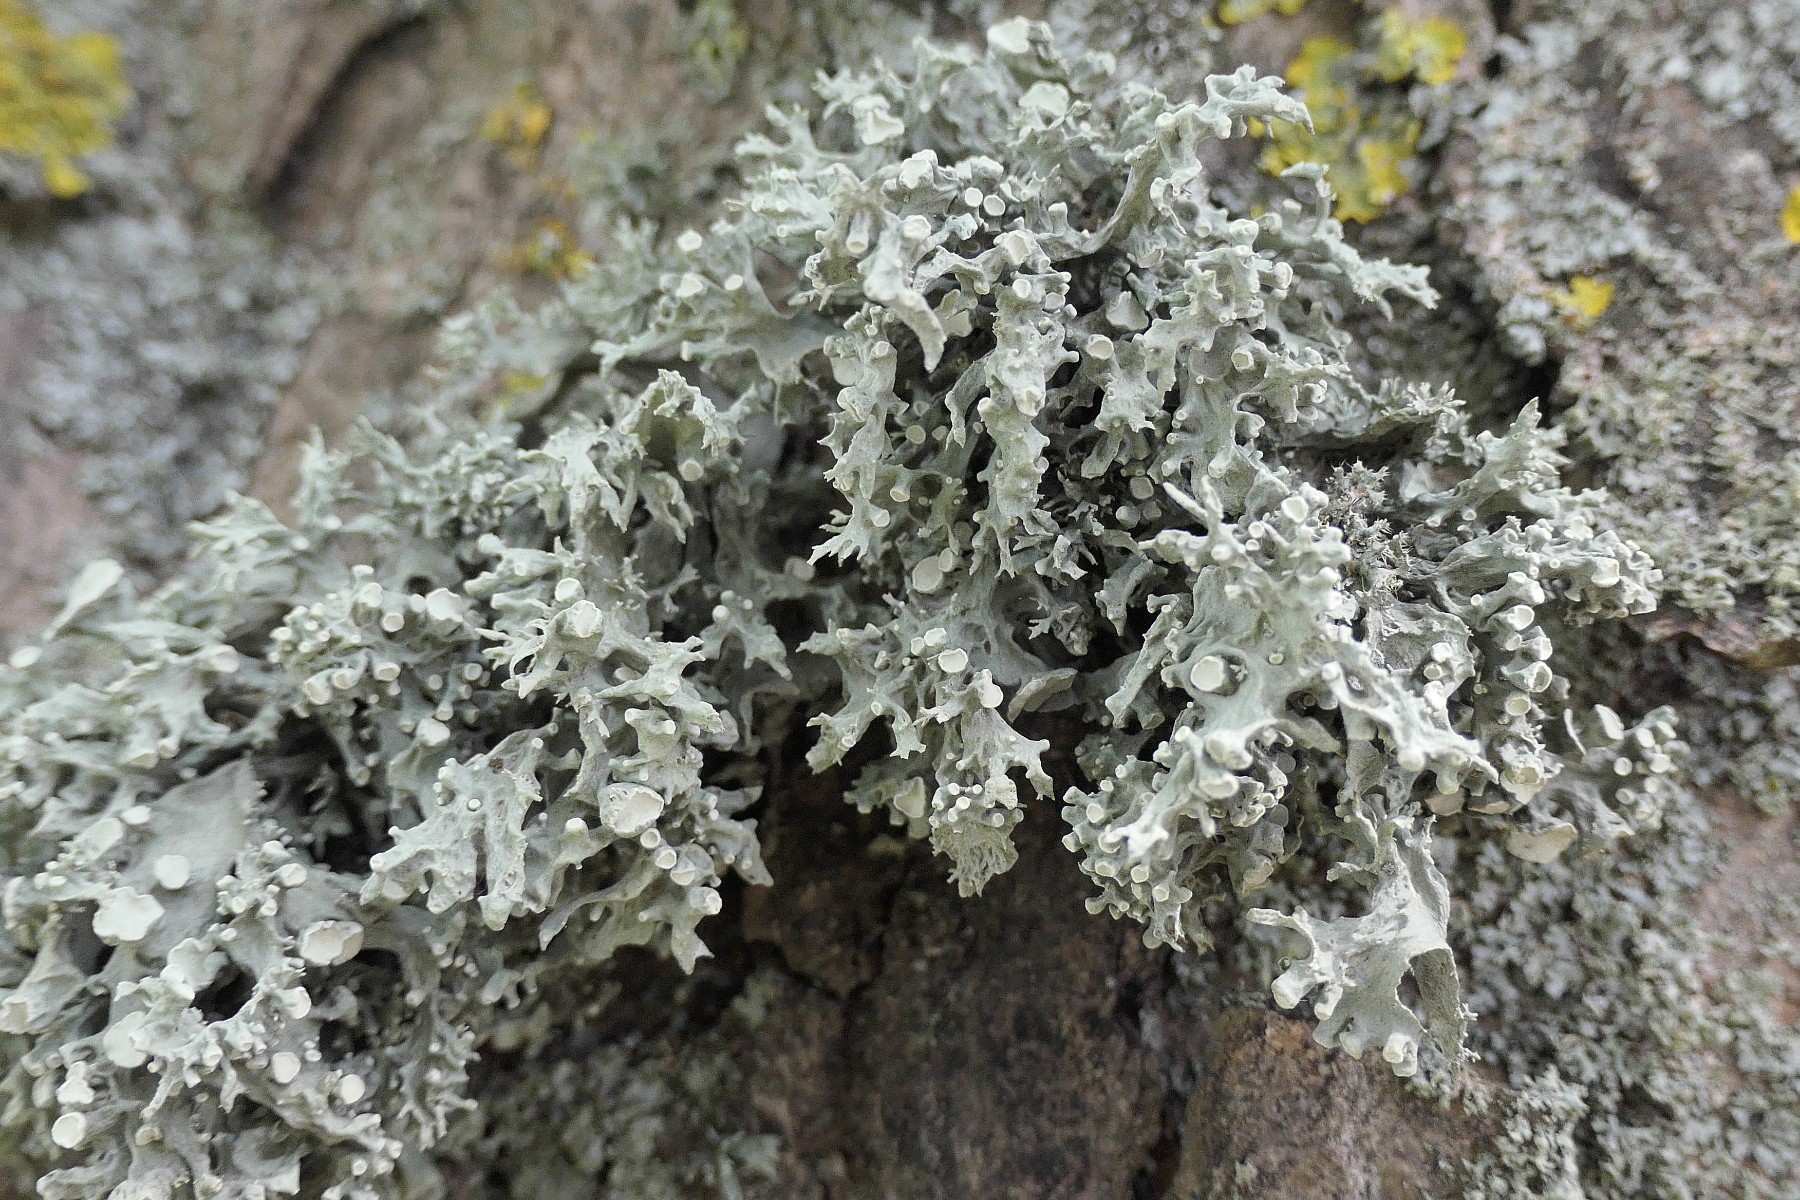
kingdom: Fungi
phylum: Ascomycota
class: Lecanoromycetes
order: Lecanorales
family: Ramalinaceae
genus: Ramalina
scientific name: Ramalina fastigiata
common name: tue-grenlav
